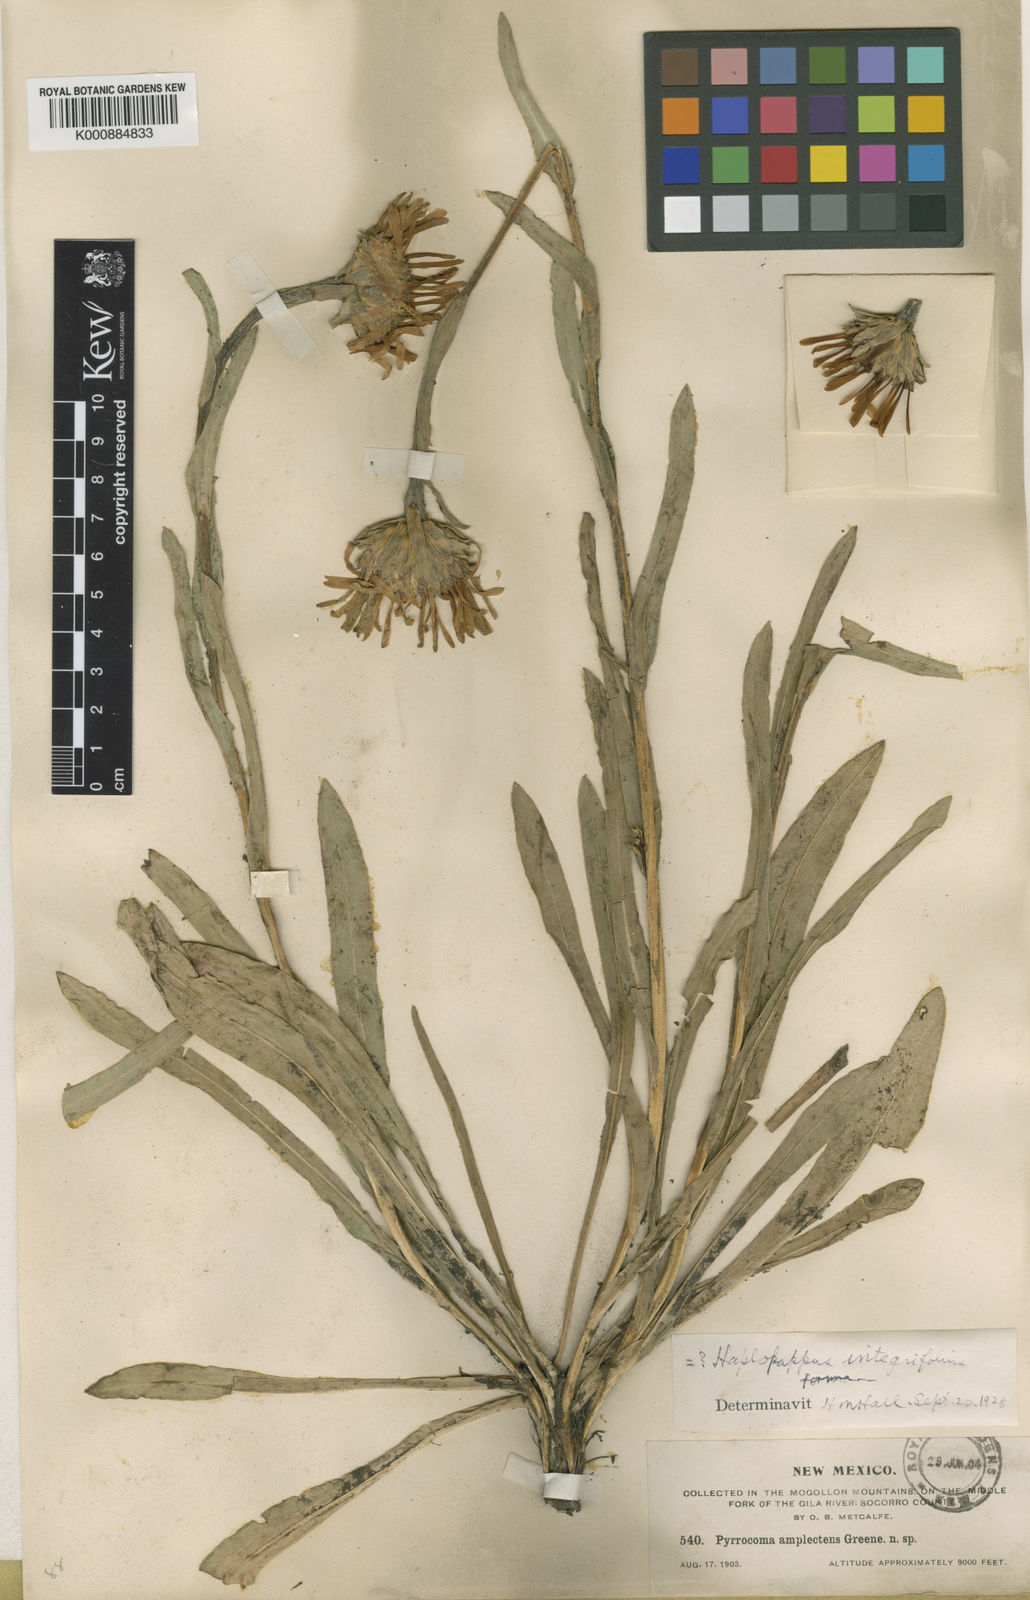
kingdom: Plantae
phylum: Tracheophyta
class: Magnoliopsida
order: Asterales
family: Asteraceae
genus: Pyrrocoma
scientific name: Pyrrocoma
